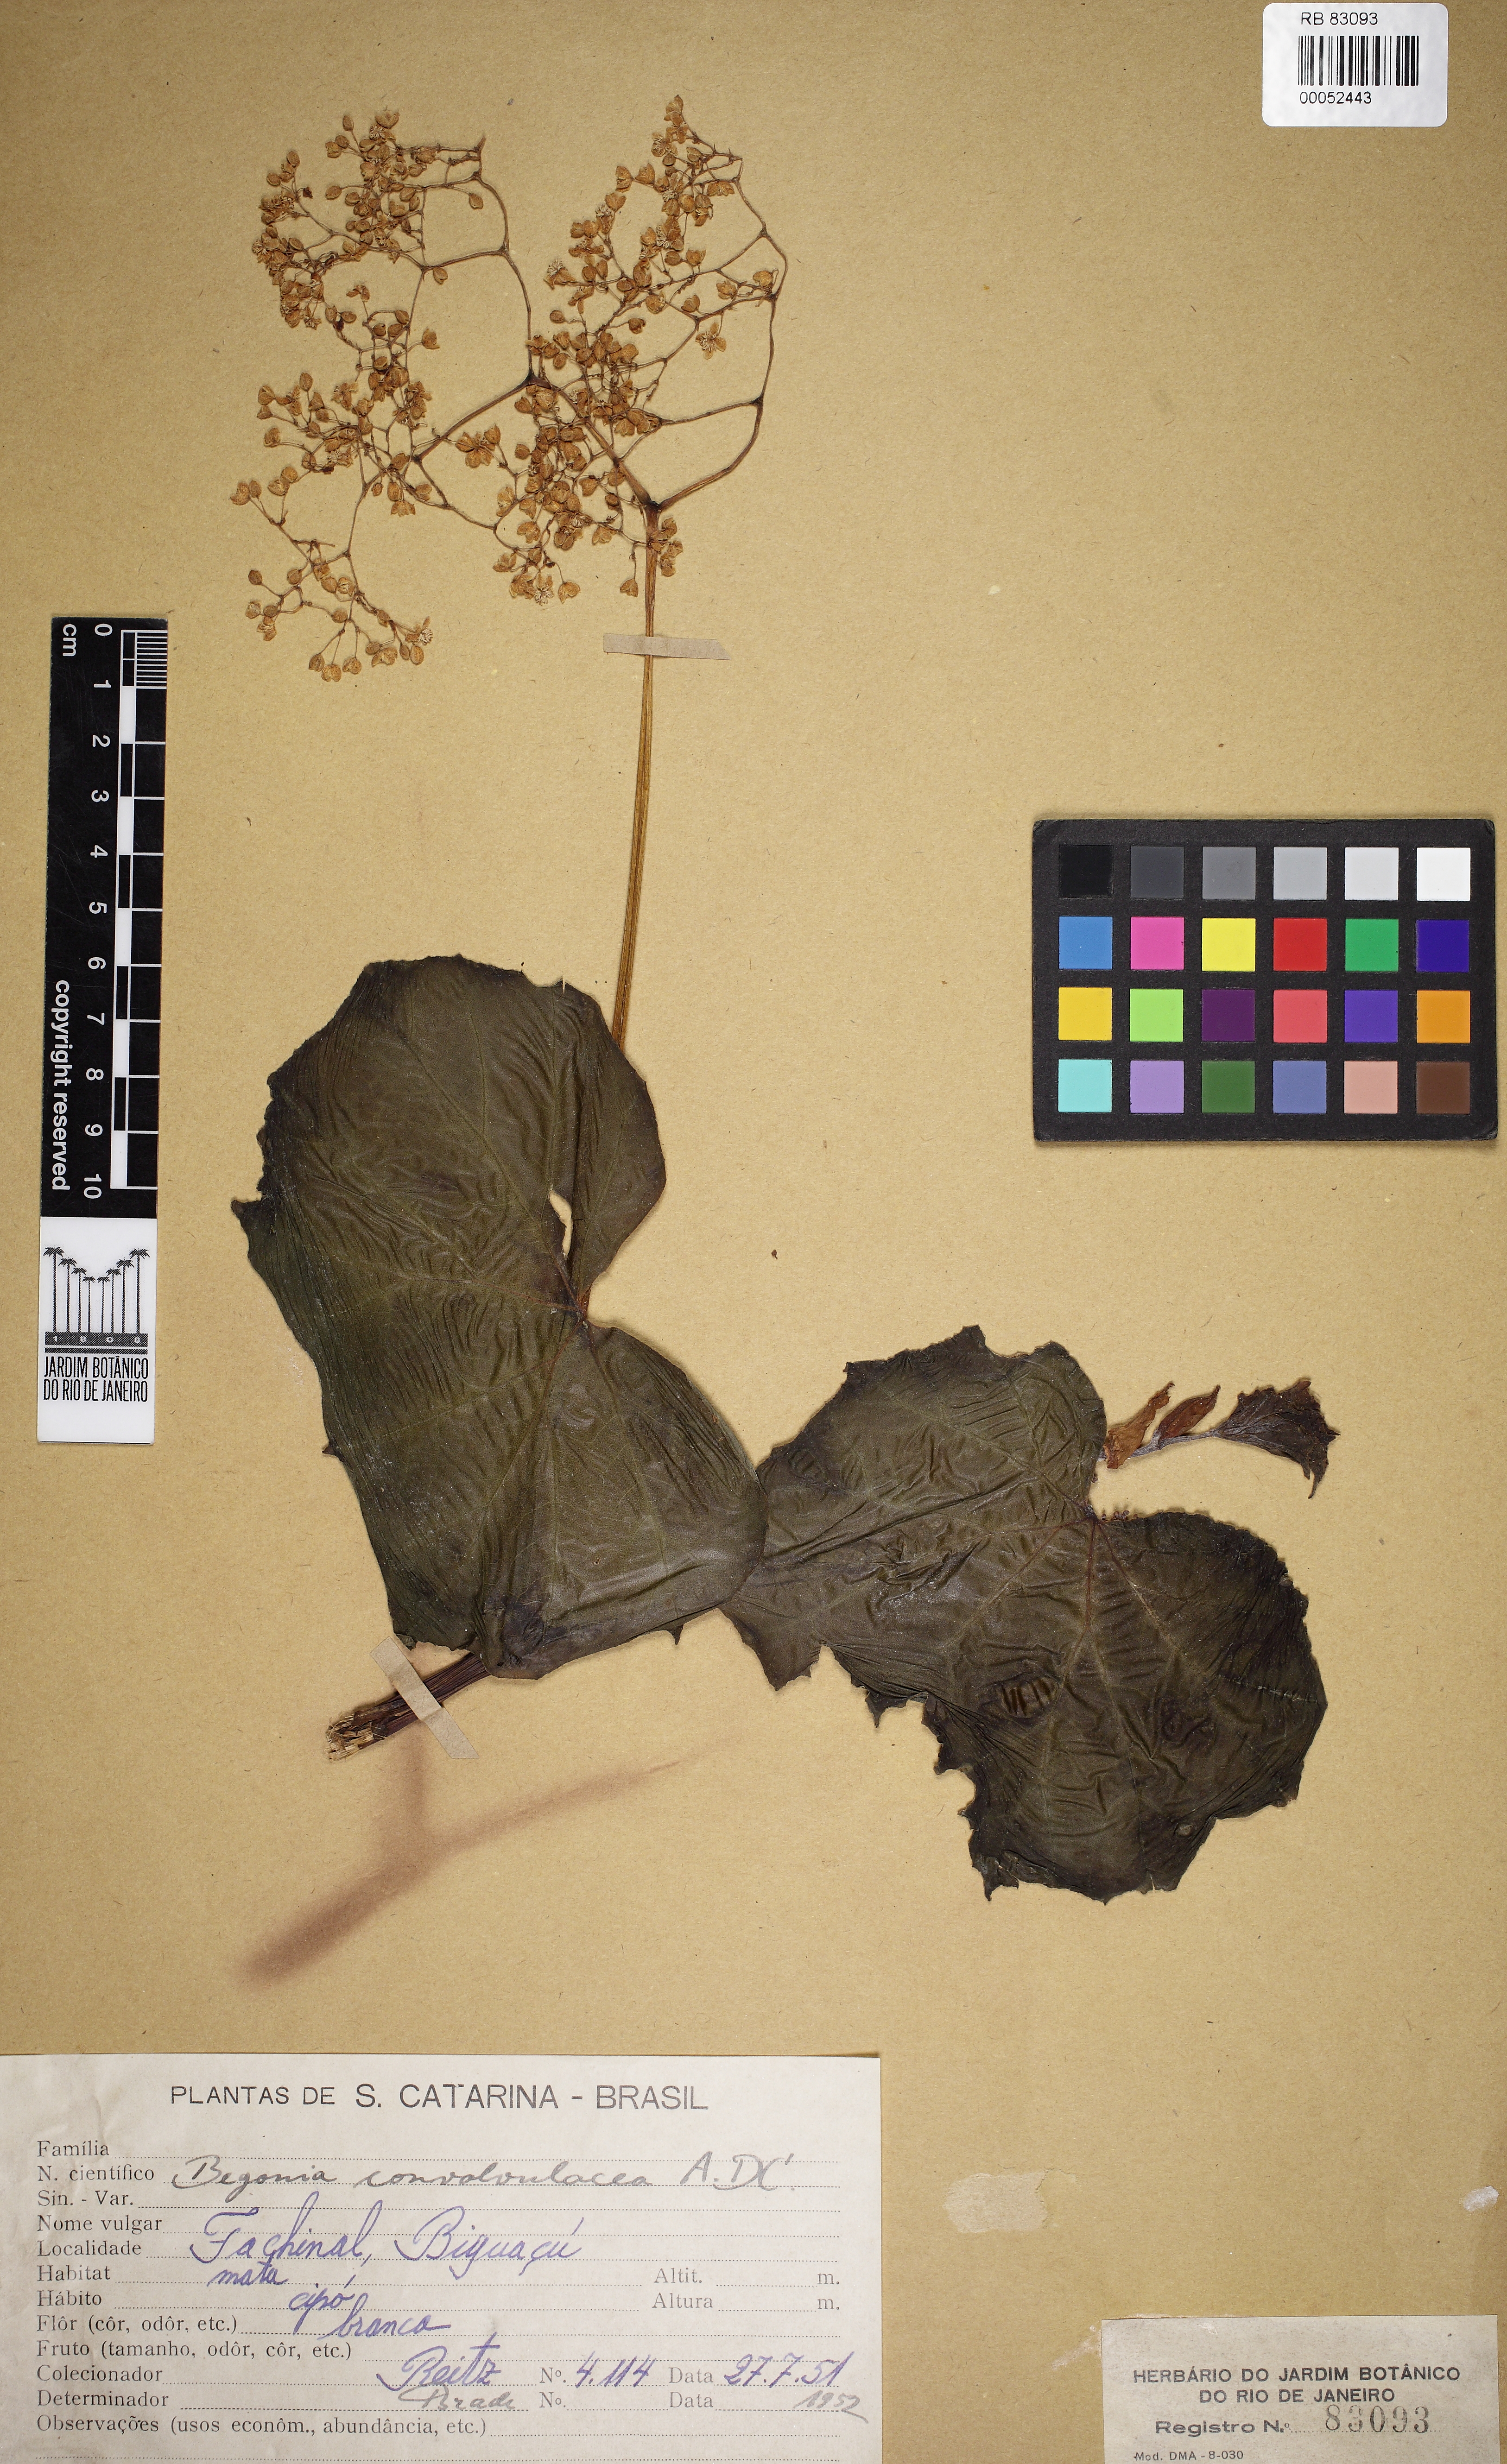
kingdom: Plantae
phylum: Tracheophyta
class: Magnoliopsida
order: Cucurbitales
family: Begoniaceae
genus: Begonia
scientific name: Begonia convolvulacea
